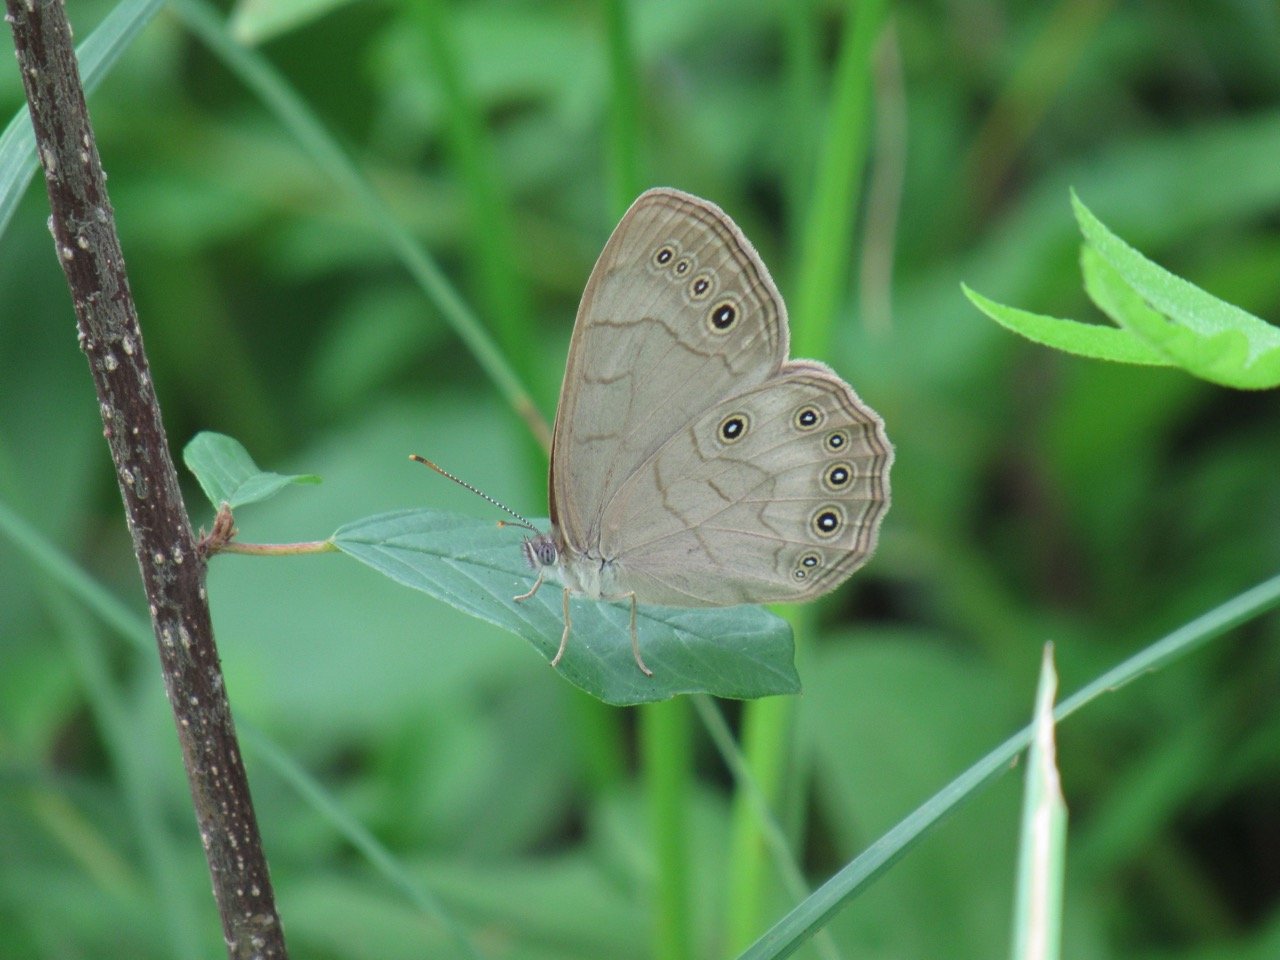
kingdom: Animalia
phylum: Arthropoda
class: Insecta
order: Lepidoptera
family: Nymphalidae
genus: Lethe
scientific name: Lethe eurydice
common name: Appalachian Eyed Brown
